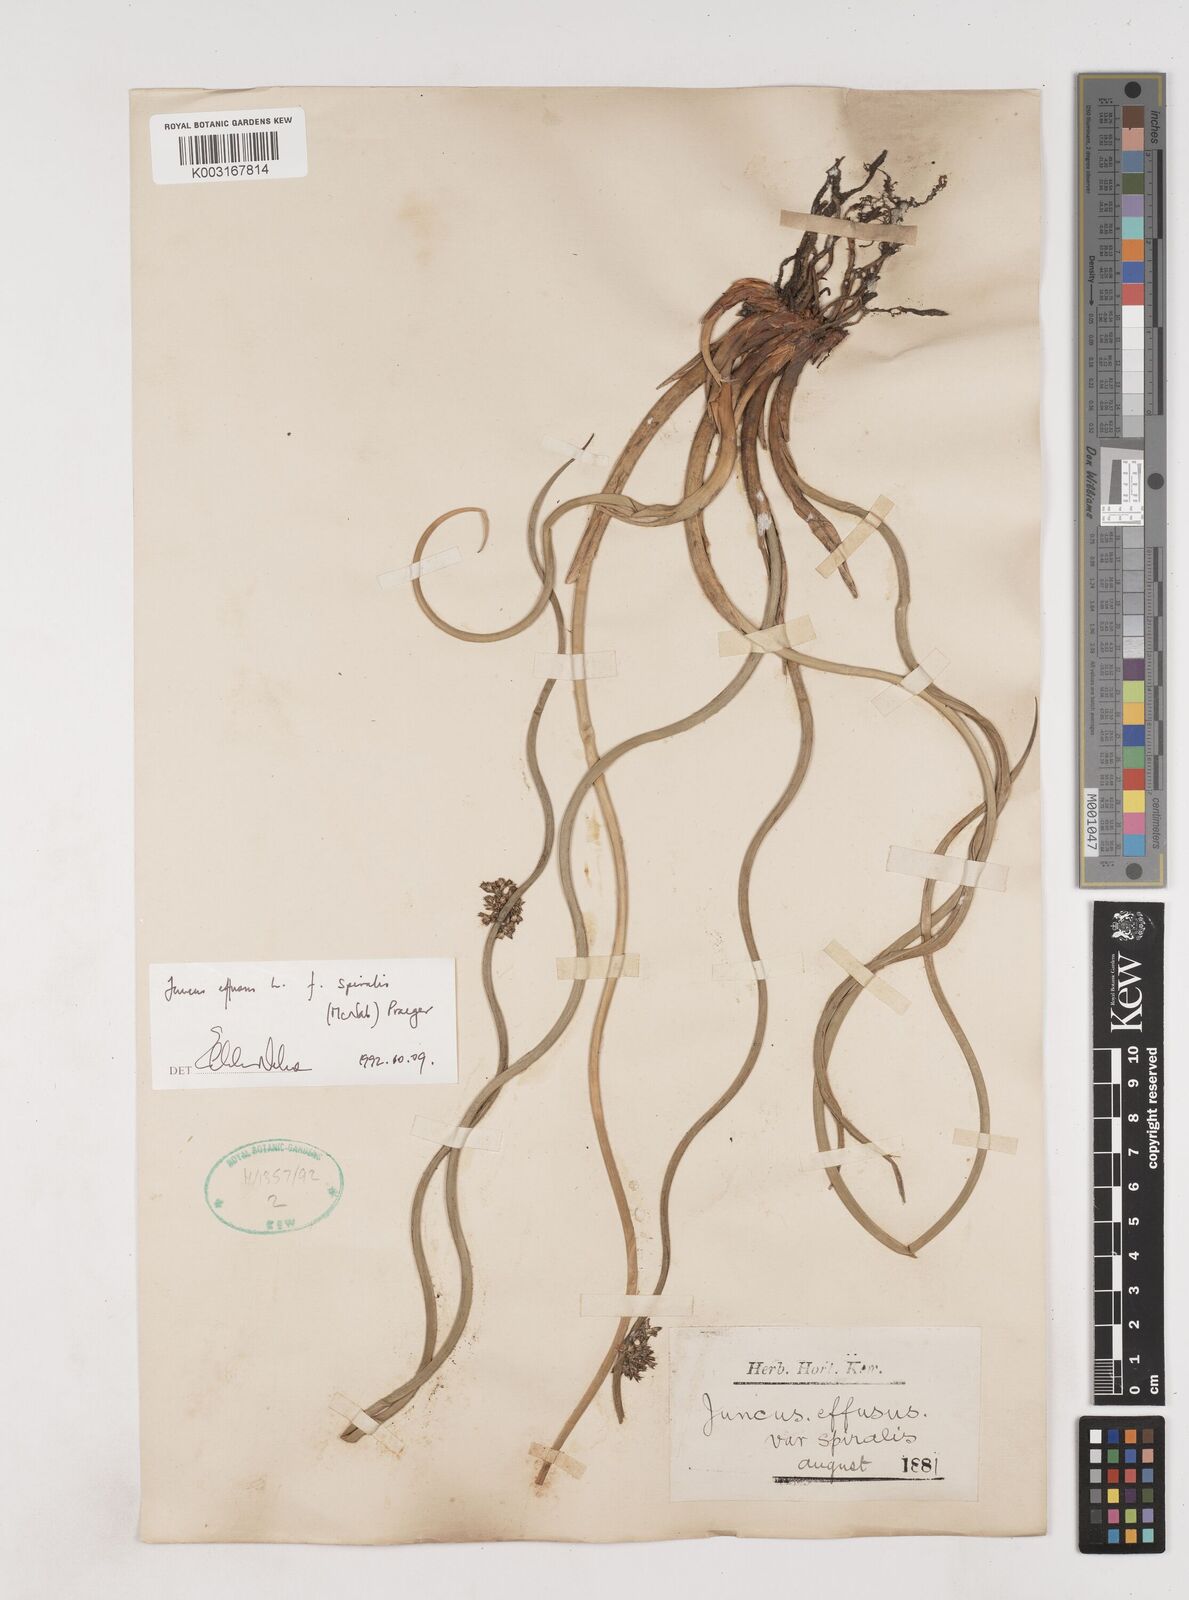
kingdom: Plantae
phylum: Tracheophyta
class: Liliopsida
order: Poales
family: Juncaceae
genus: Juncus
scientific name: Juncus effusus
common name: Soft rush
